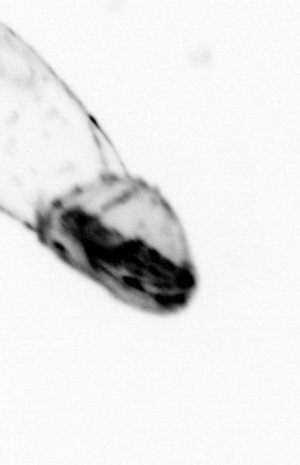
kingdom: Animalia
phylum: Chaetognatha
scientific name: Chaetognatha
